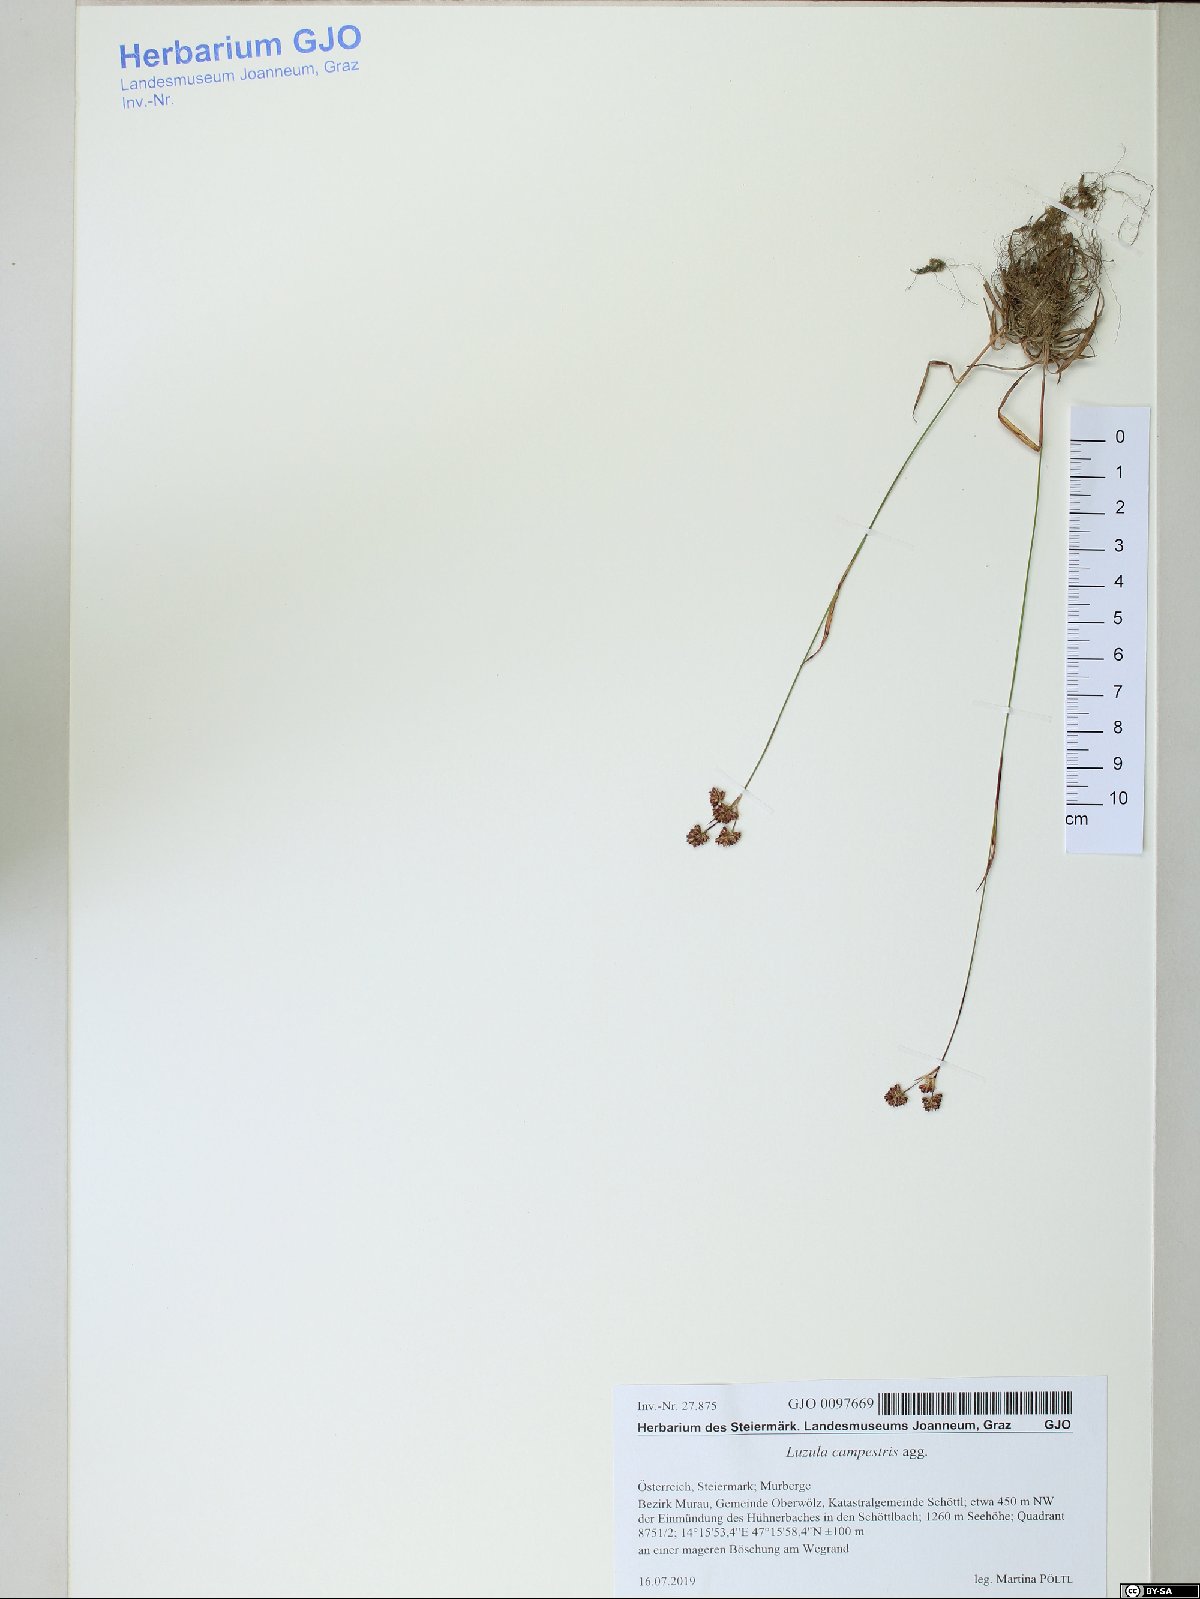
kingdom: Plantae
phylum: Tracheophyta
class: Liliopsida
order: Poales
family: Juncaceae
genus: Luzula
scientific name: Luzula campestris
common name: Field wood-rush
